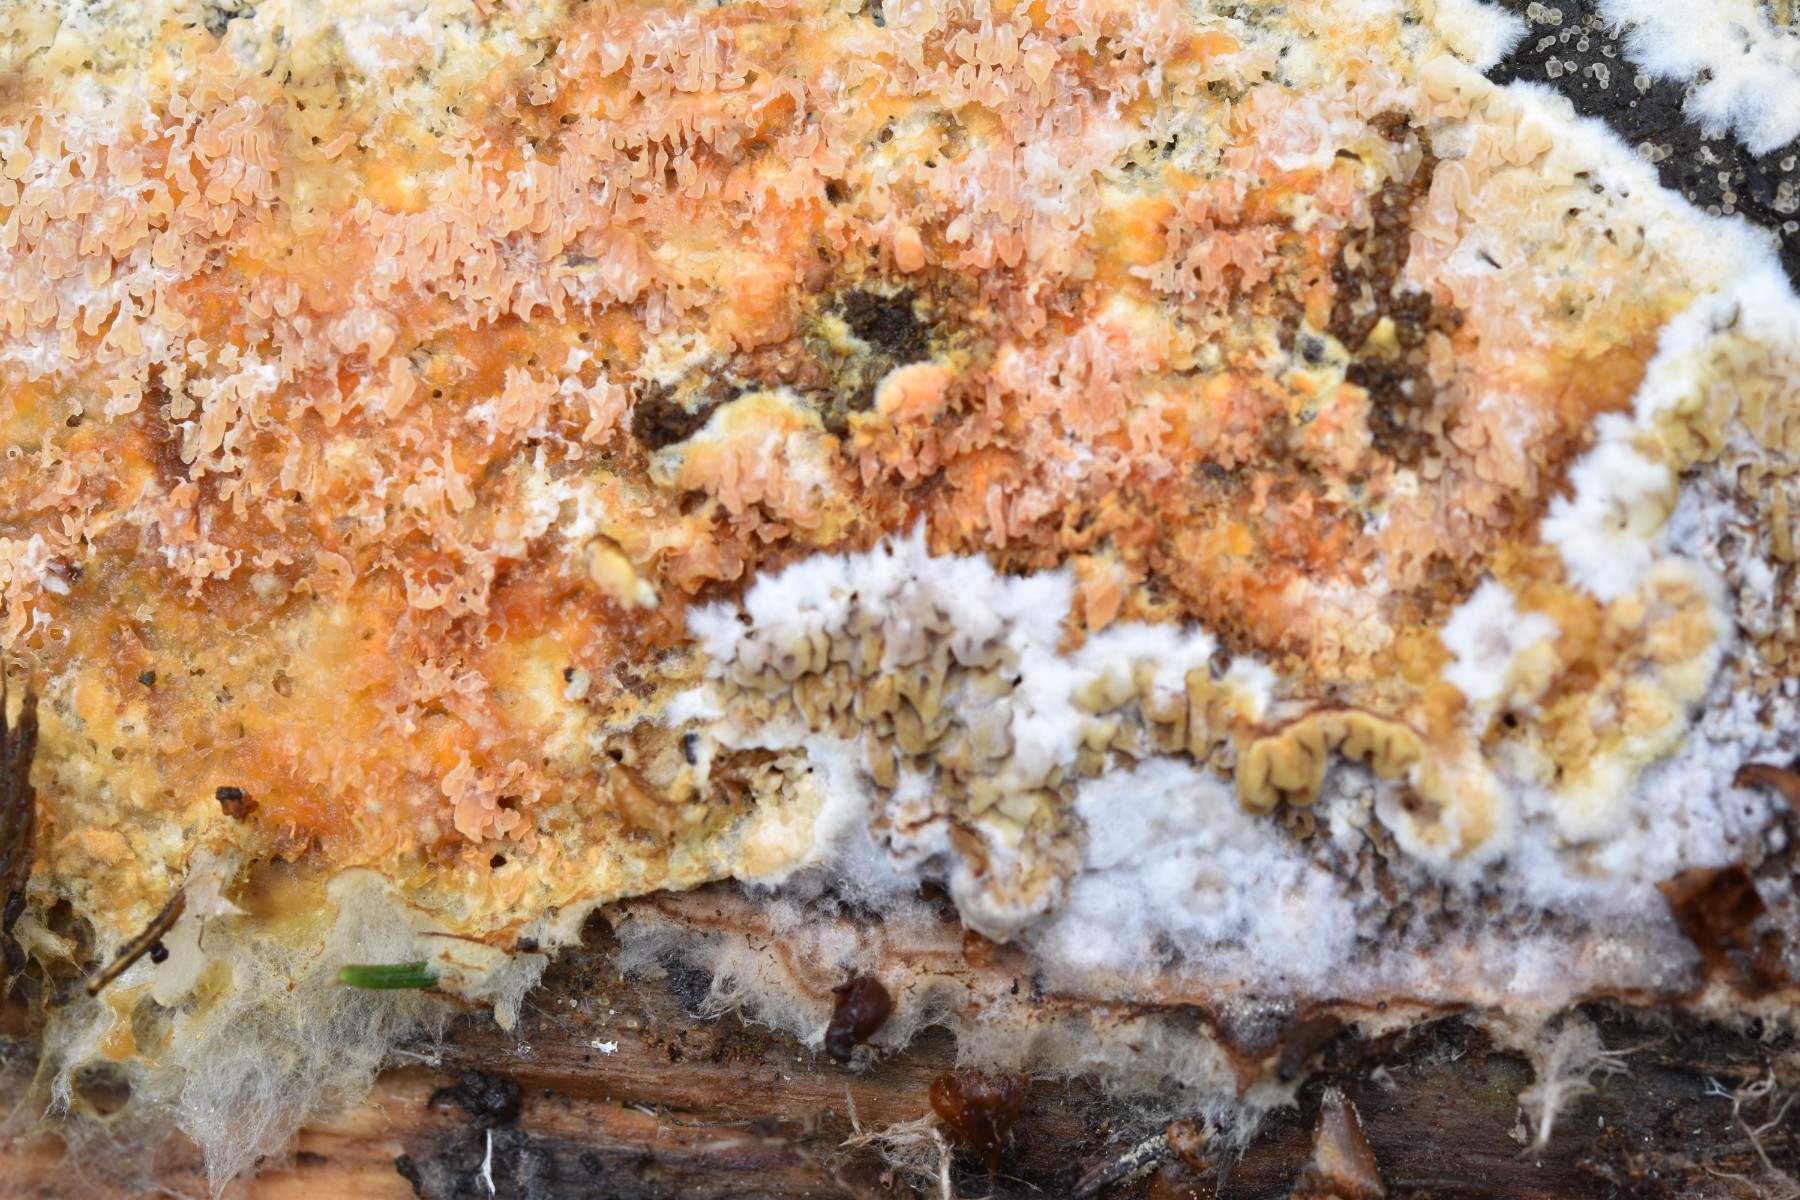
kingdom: Fungi
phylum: Basidiomycota
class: Agaricomycetes
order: Boletales
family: Hygrophoropsidaceae
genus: Leucogyrophana
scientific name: Leucogyrophana mollusca
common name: blød hussvamp
